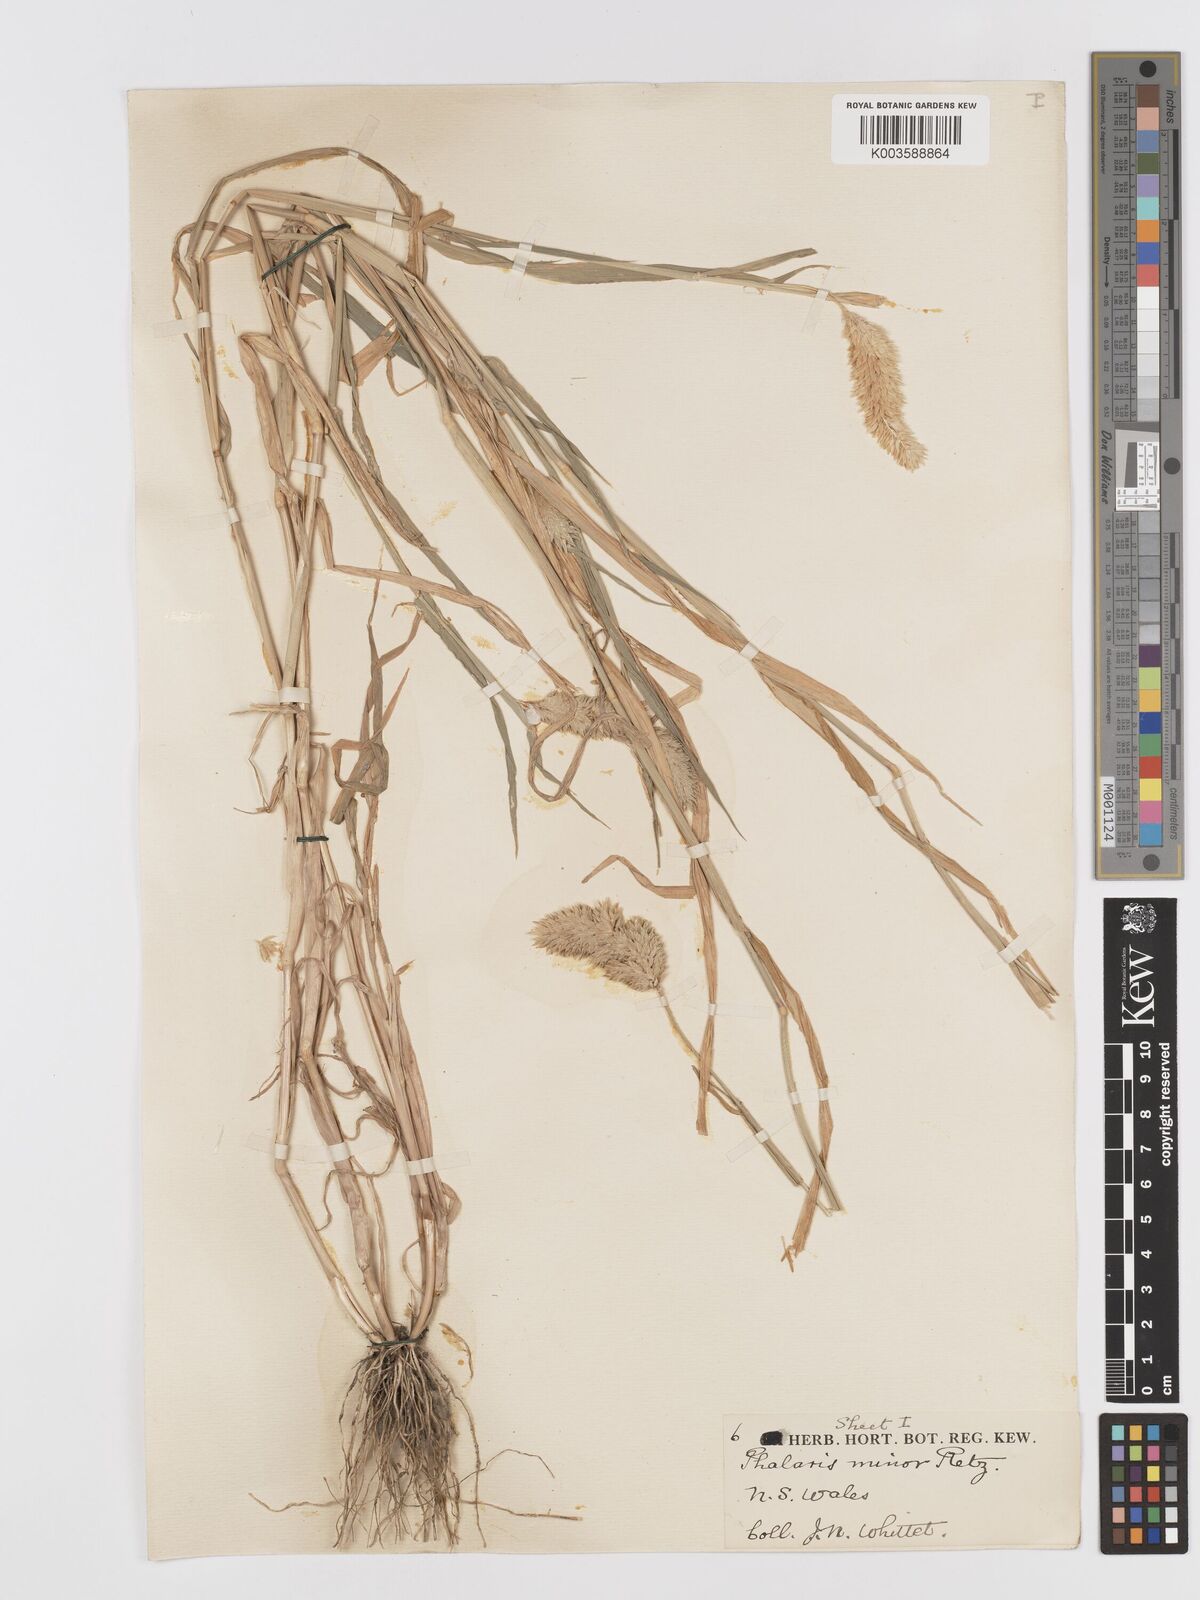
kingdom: Plantae
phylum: Tracheophyta
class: Liliopsida
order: Poales
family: Poaceae
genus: Phalaris
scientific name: Phalaris minor
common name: Littleseed canarygrass
